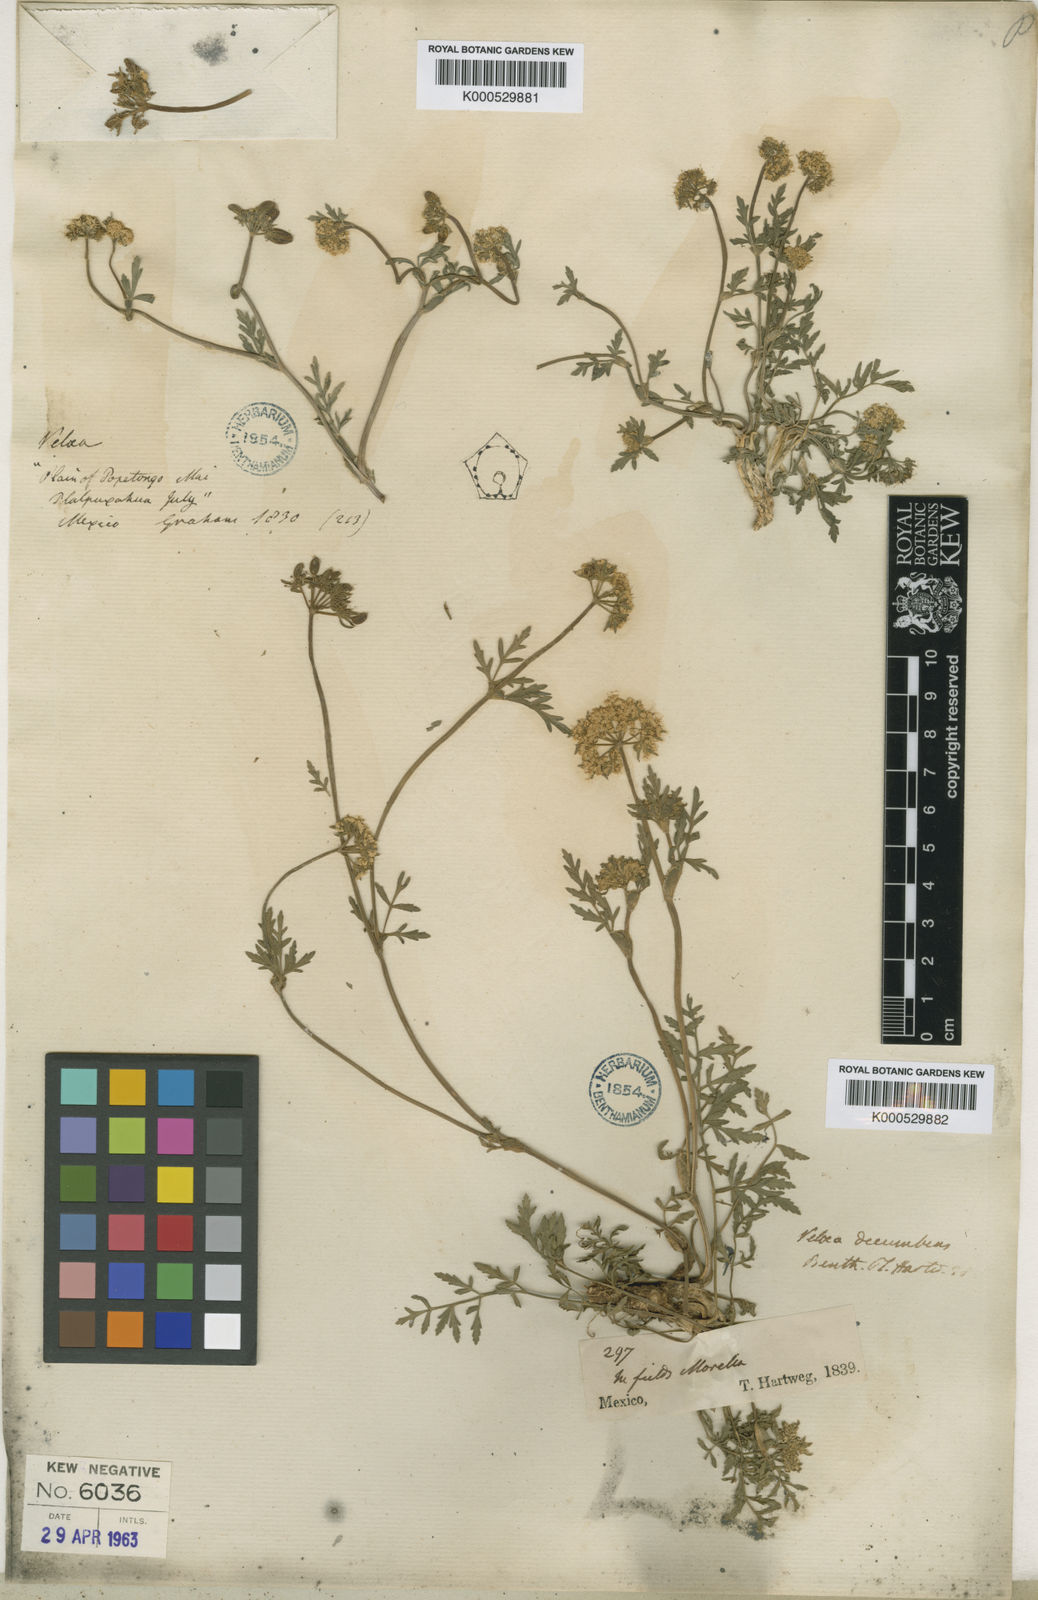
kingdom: Plantae
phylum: Tracheophyta
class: Magnoliopsida
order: Apiales
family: Apiaceae
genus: Tauschia
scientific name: Tauschia
